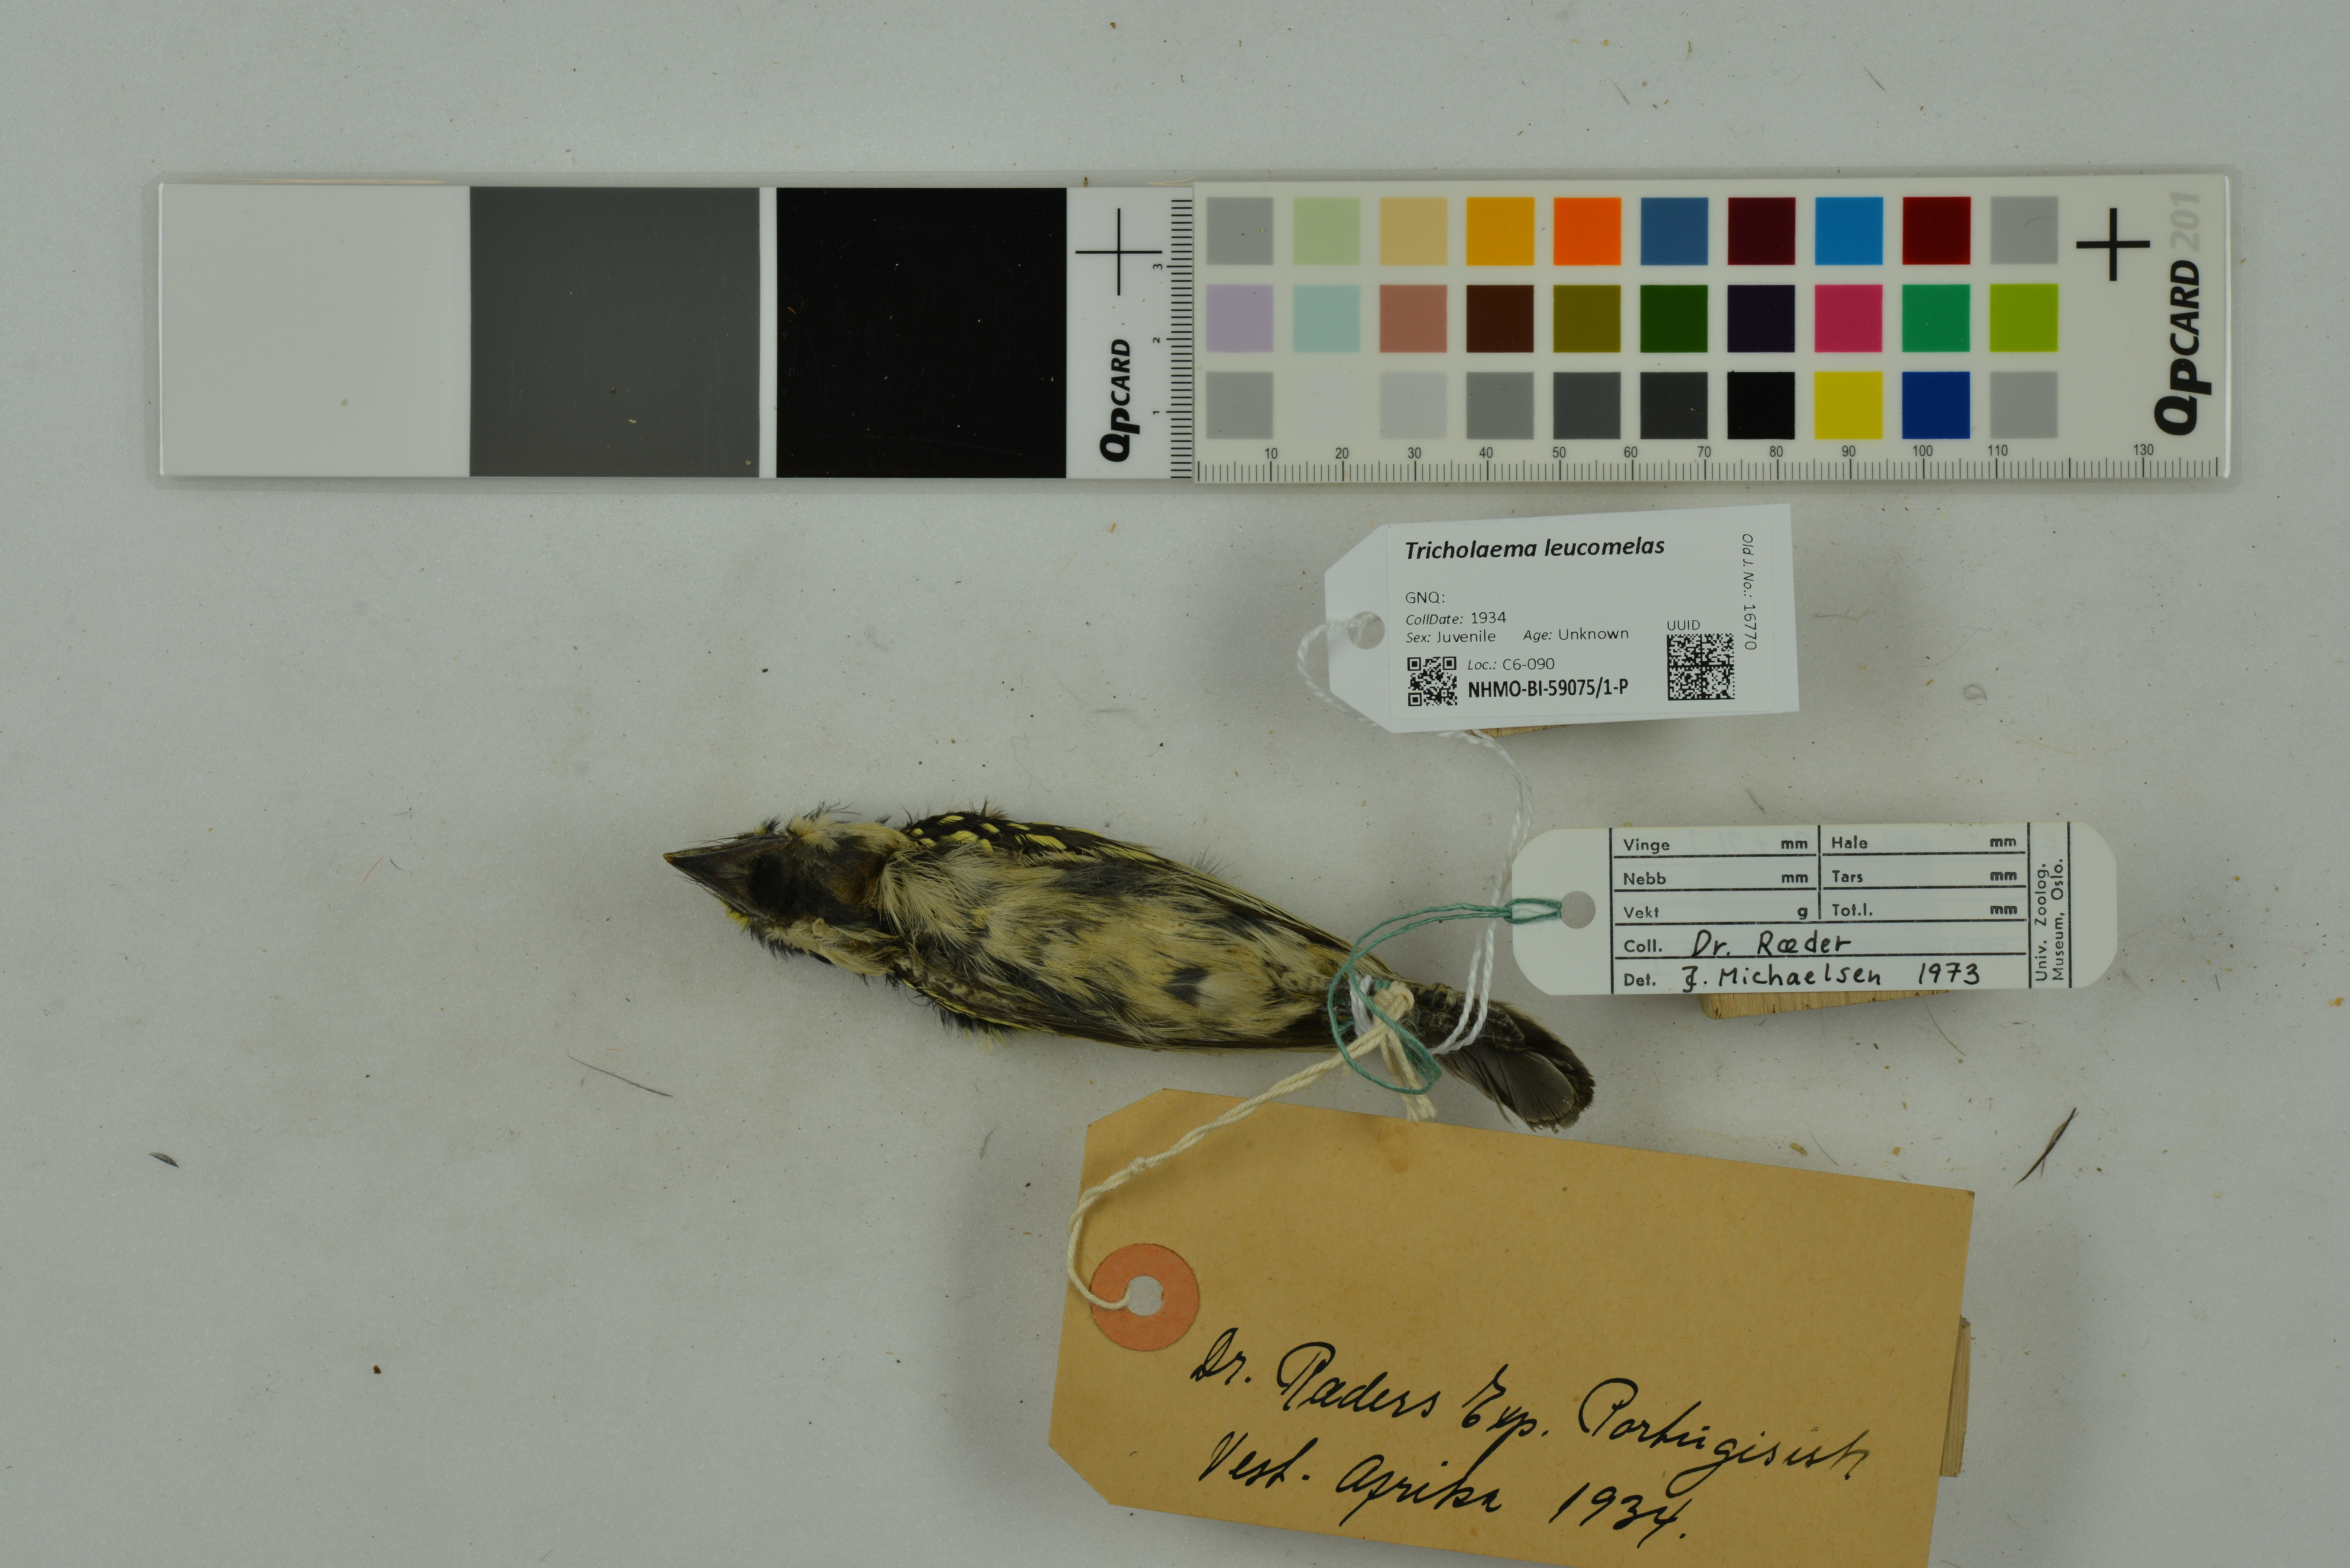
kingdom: Animalia
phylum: Chordata
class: Aves
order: Piciformes
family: Lybiidae
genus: Tricholaema
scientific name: Tricholaema leucomelas
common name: Acacia pied barbet
